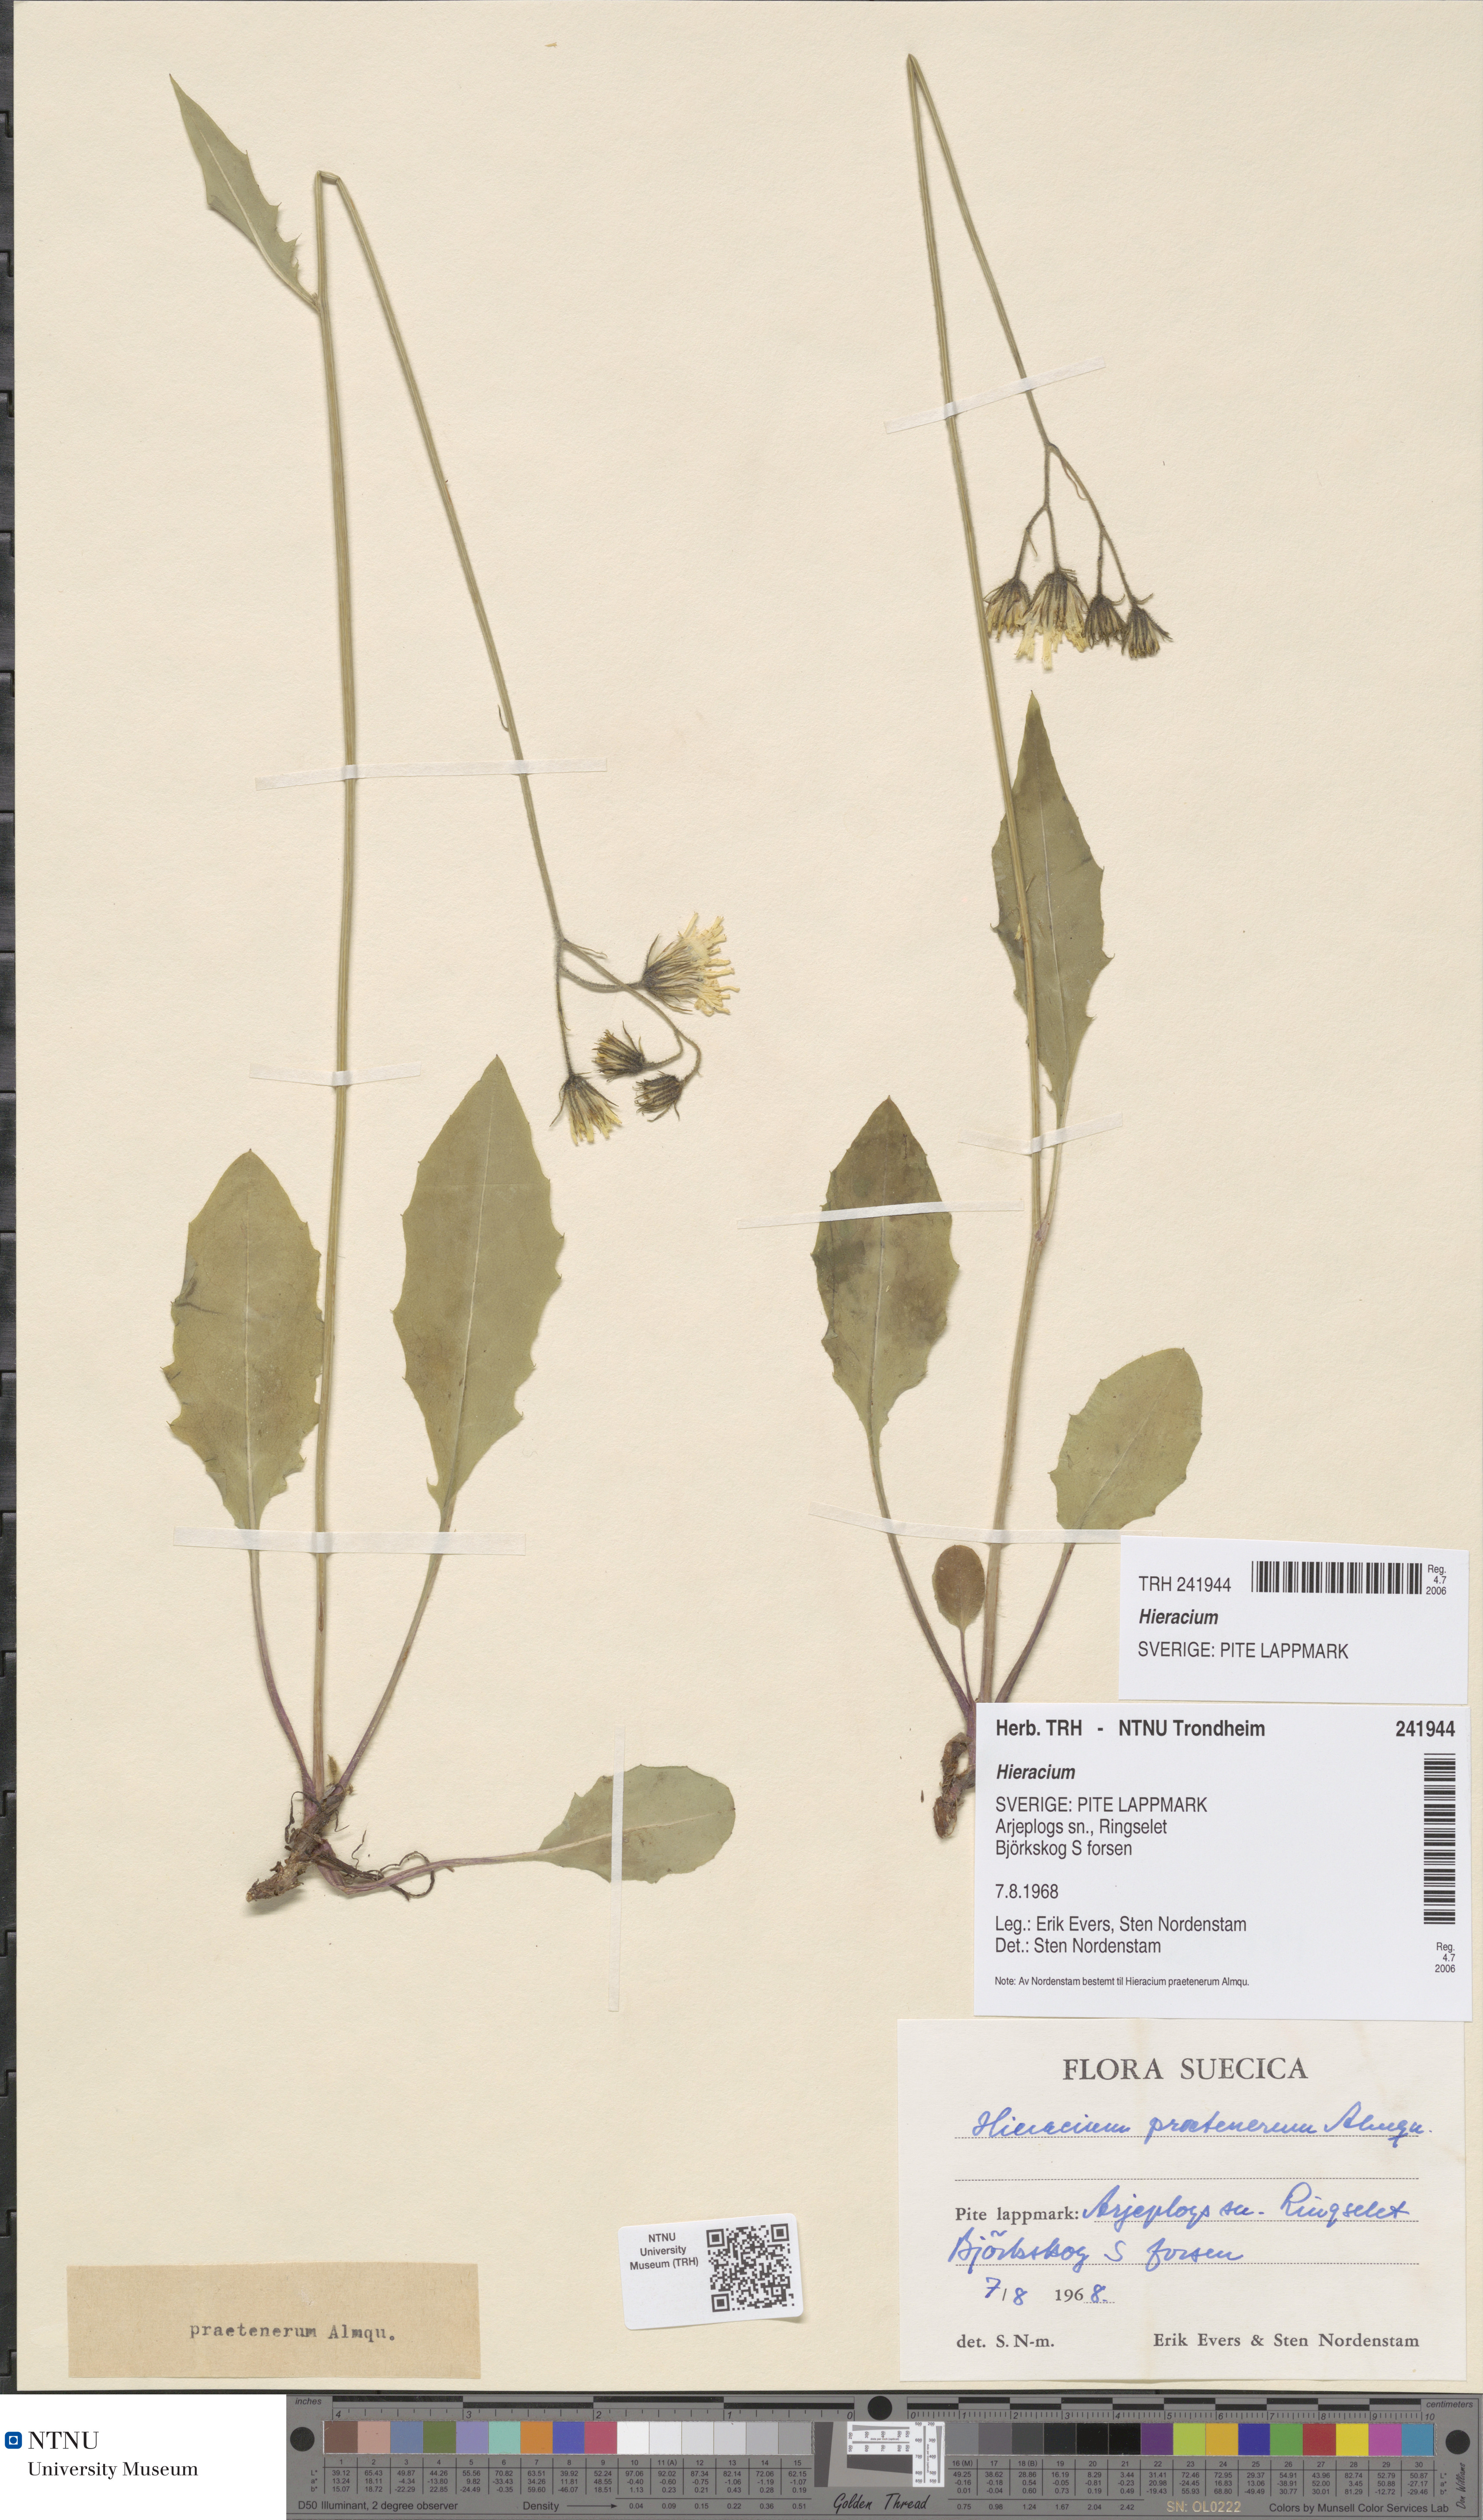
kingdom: Plantae
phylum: Tracheophyta
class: Magnoliopsida
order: Asterales
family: Asteraceae
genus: Hieracium
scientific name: Hieracium
